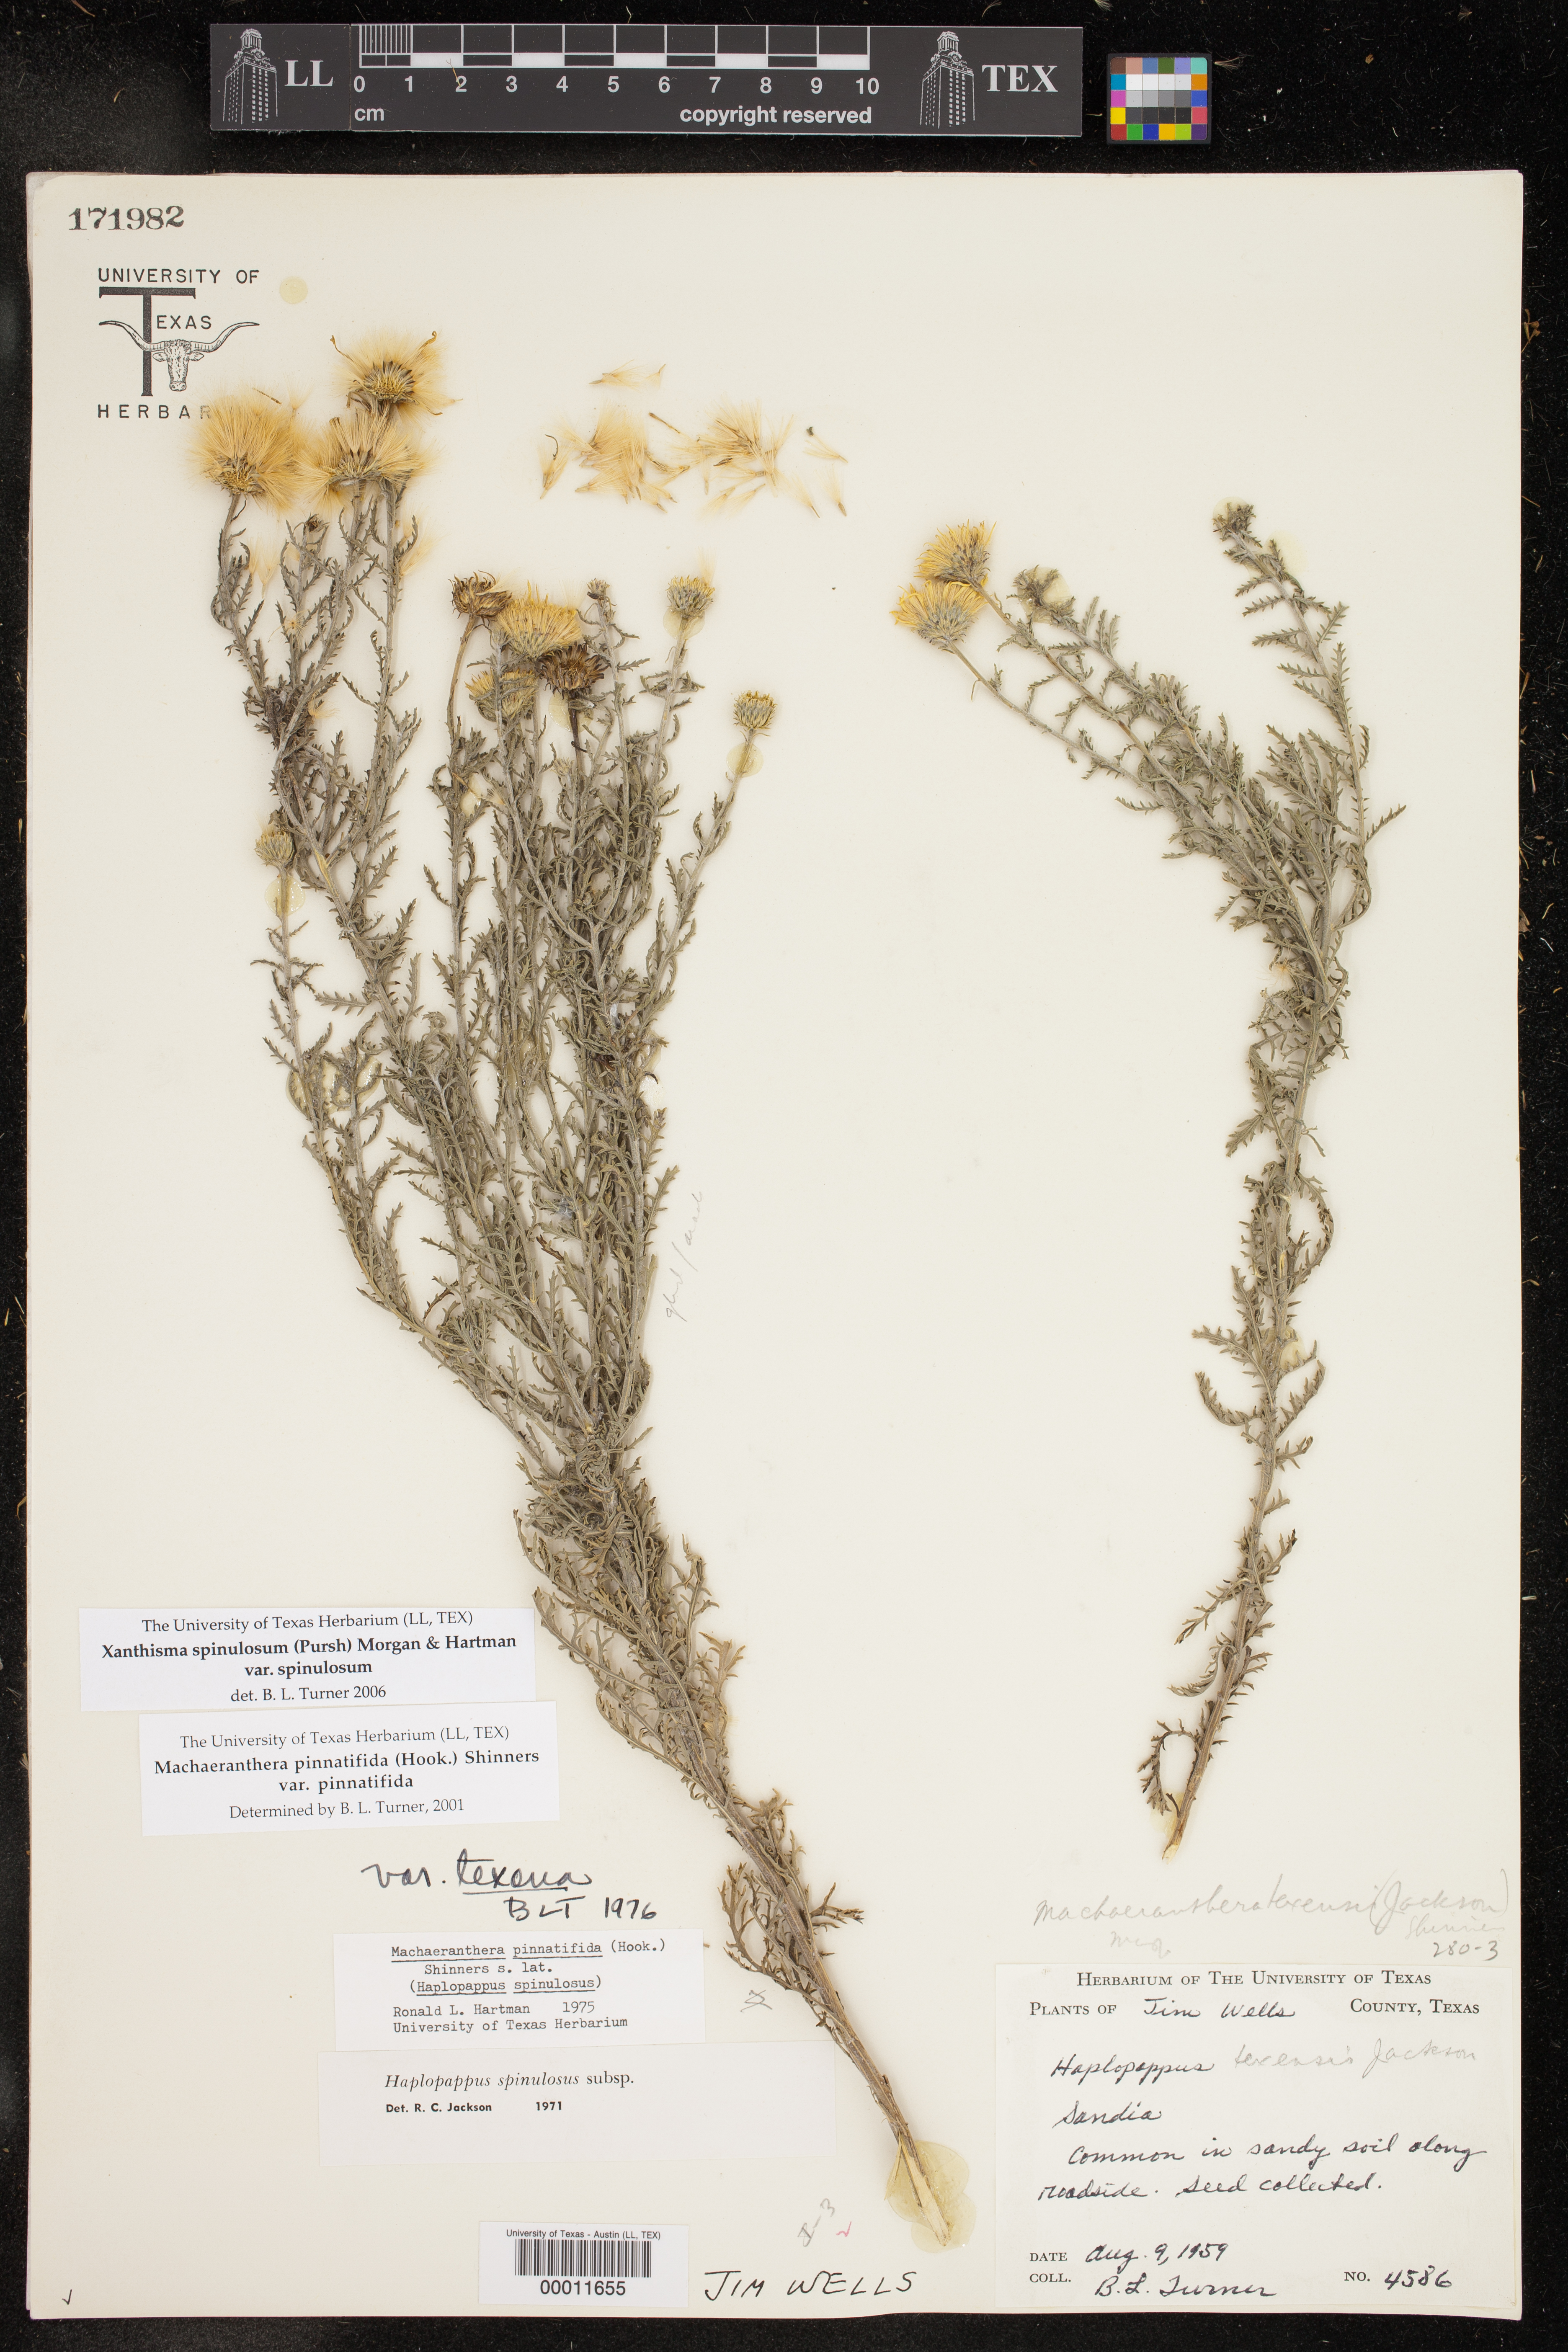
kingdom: Plantae
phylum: Tracheophyta
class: Magnoliopsida
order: Asterales
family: Asteraceae
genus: Xanthisma
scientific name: Xanthisma spinulosum
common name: Spiny goldenweed
